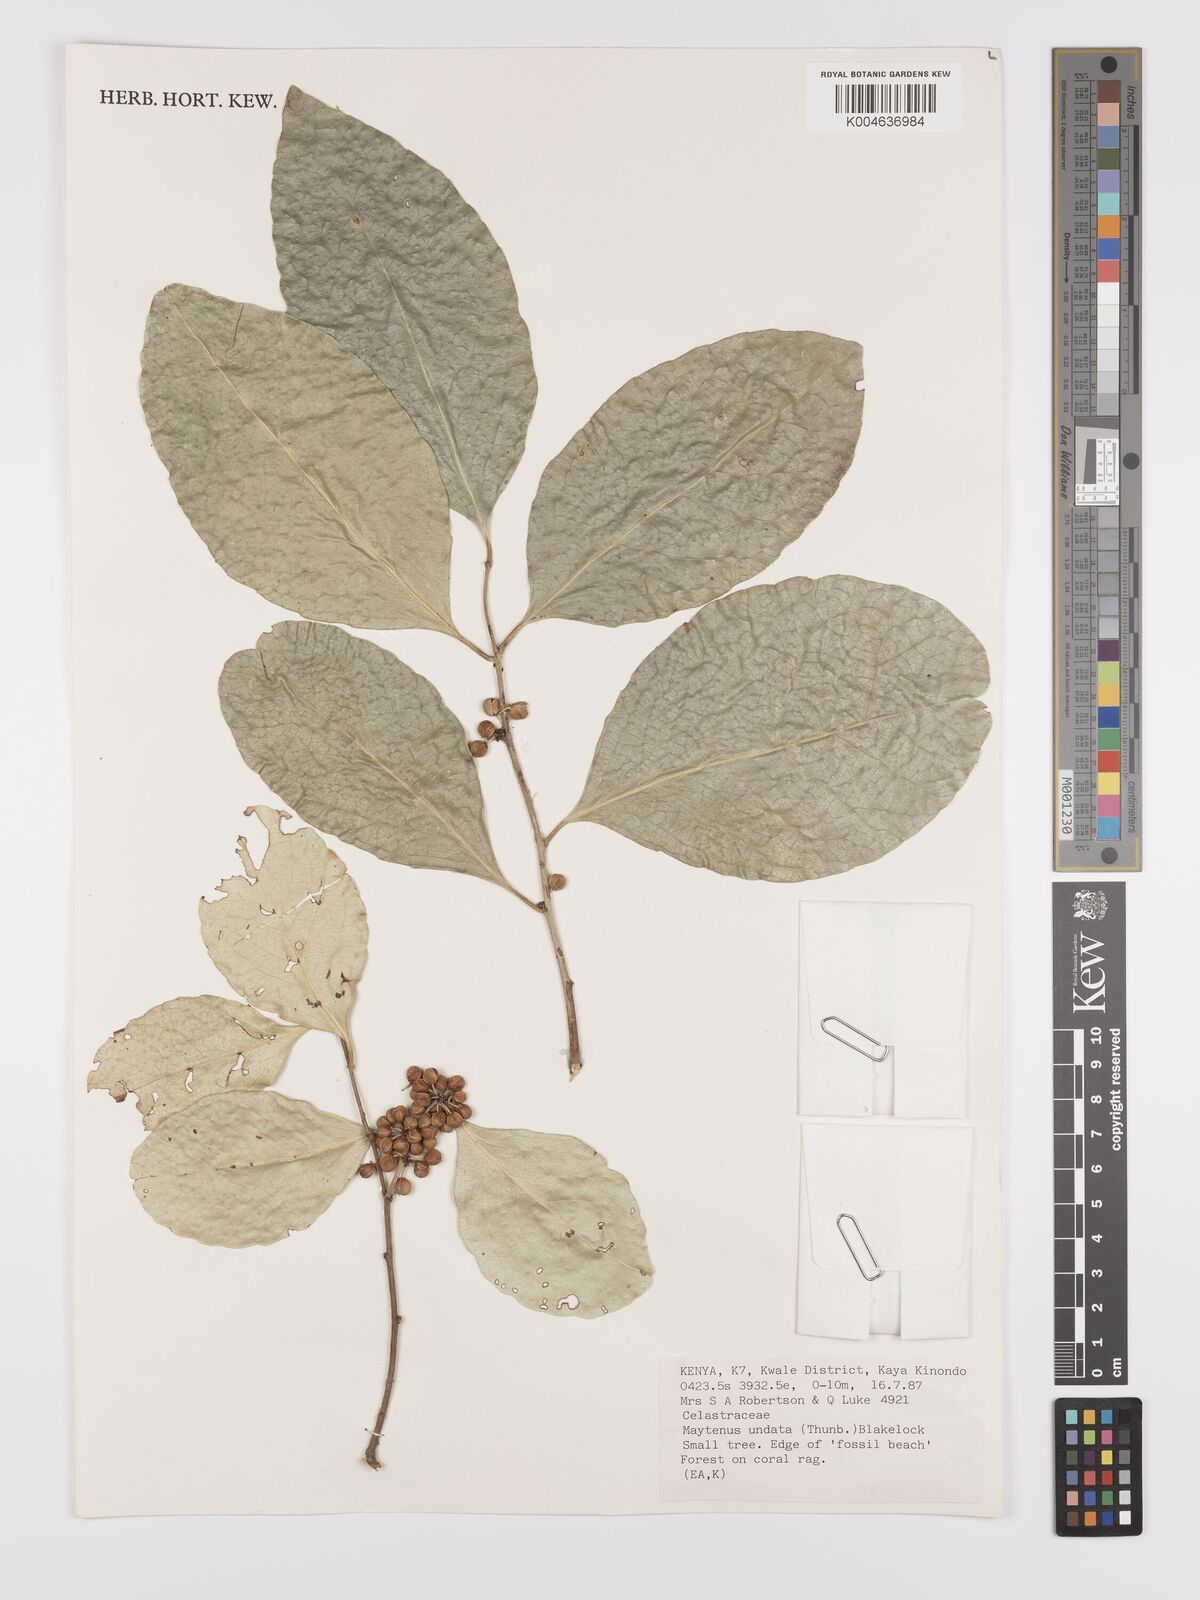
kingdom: Plantae
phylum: Tracheophyta
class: Magnoliopsida
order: Celastrales
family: Celastraceae
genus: Gymnosporia
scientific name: Gymnosporia undata
